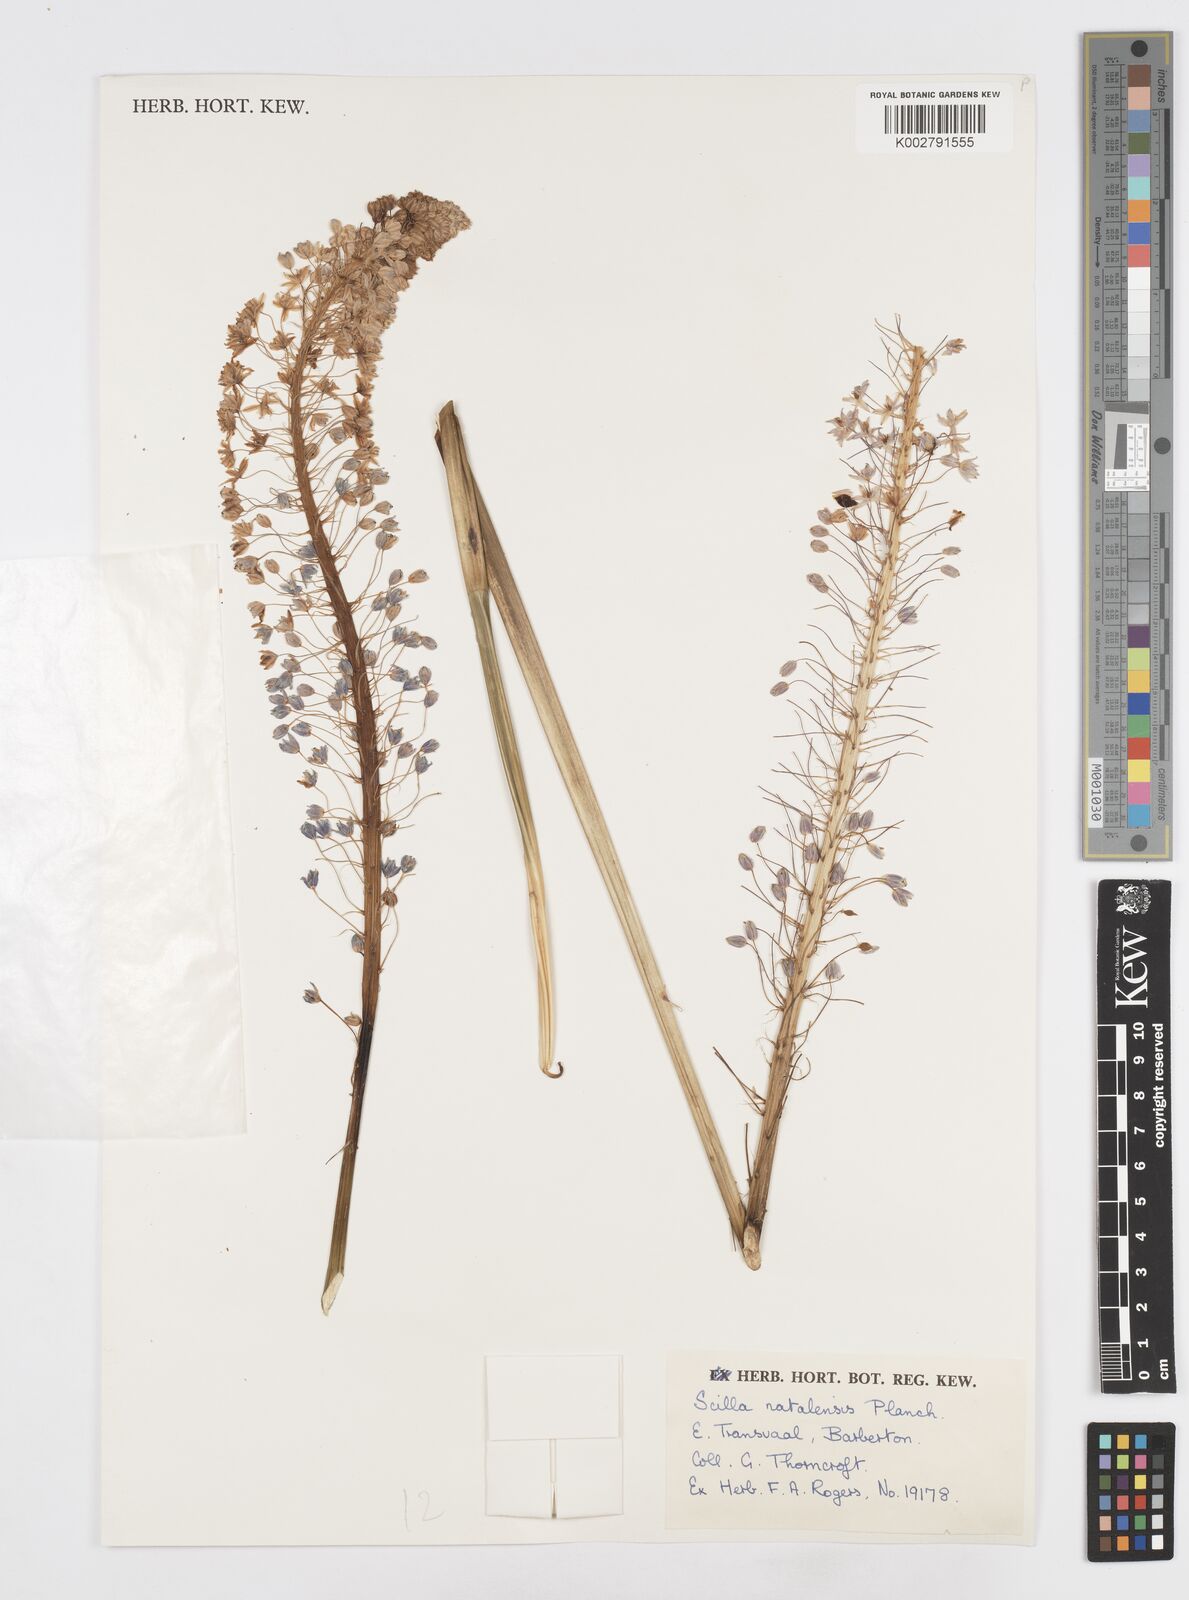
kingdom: Plantae
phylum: Tracheophyta
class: Liliopsida
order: Asparagales
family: Asparagaceae
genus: Merwilla
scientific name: Merwilla plumbea
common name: Blue-squill
